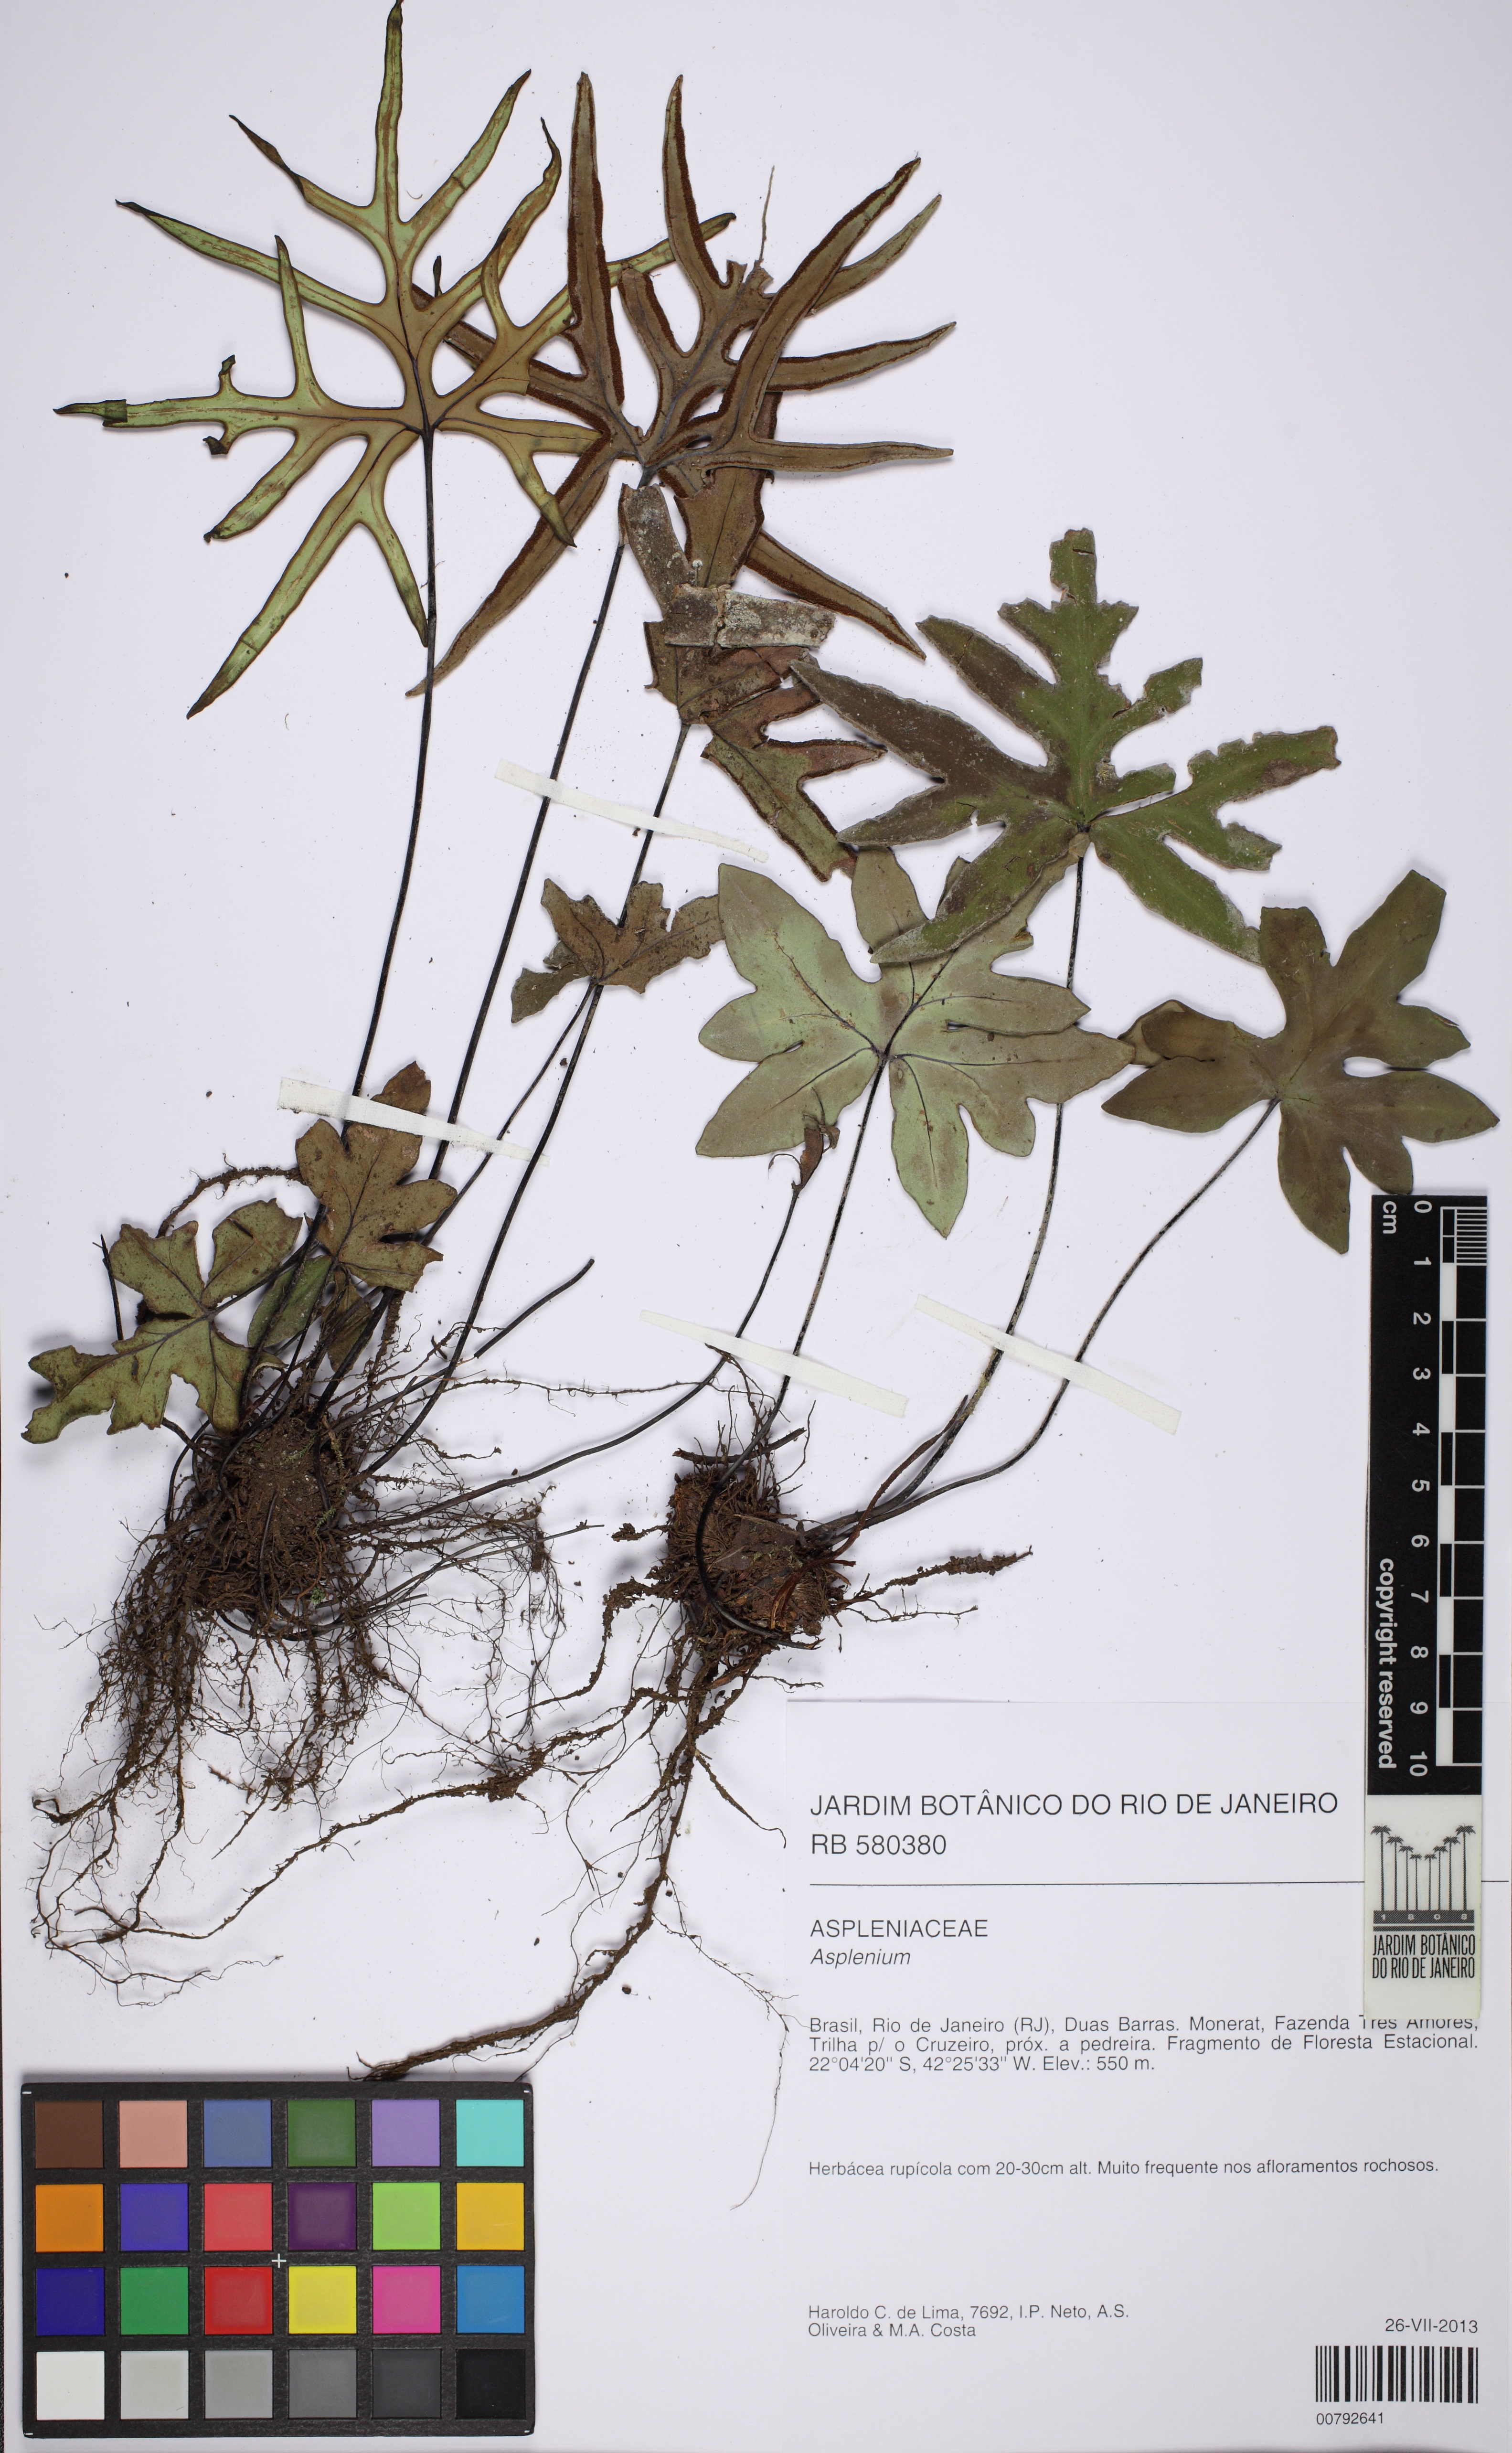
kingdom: Plantae
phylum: Tracheophyta
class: Polypodiopsida
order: Polypodiales
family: Pteridaceae
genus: Doryopteris
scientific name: Doryopteris varians
